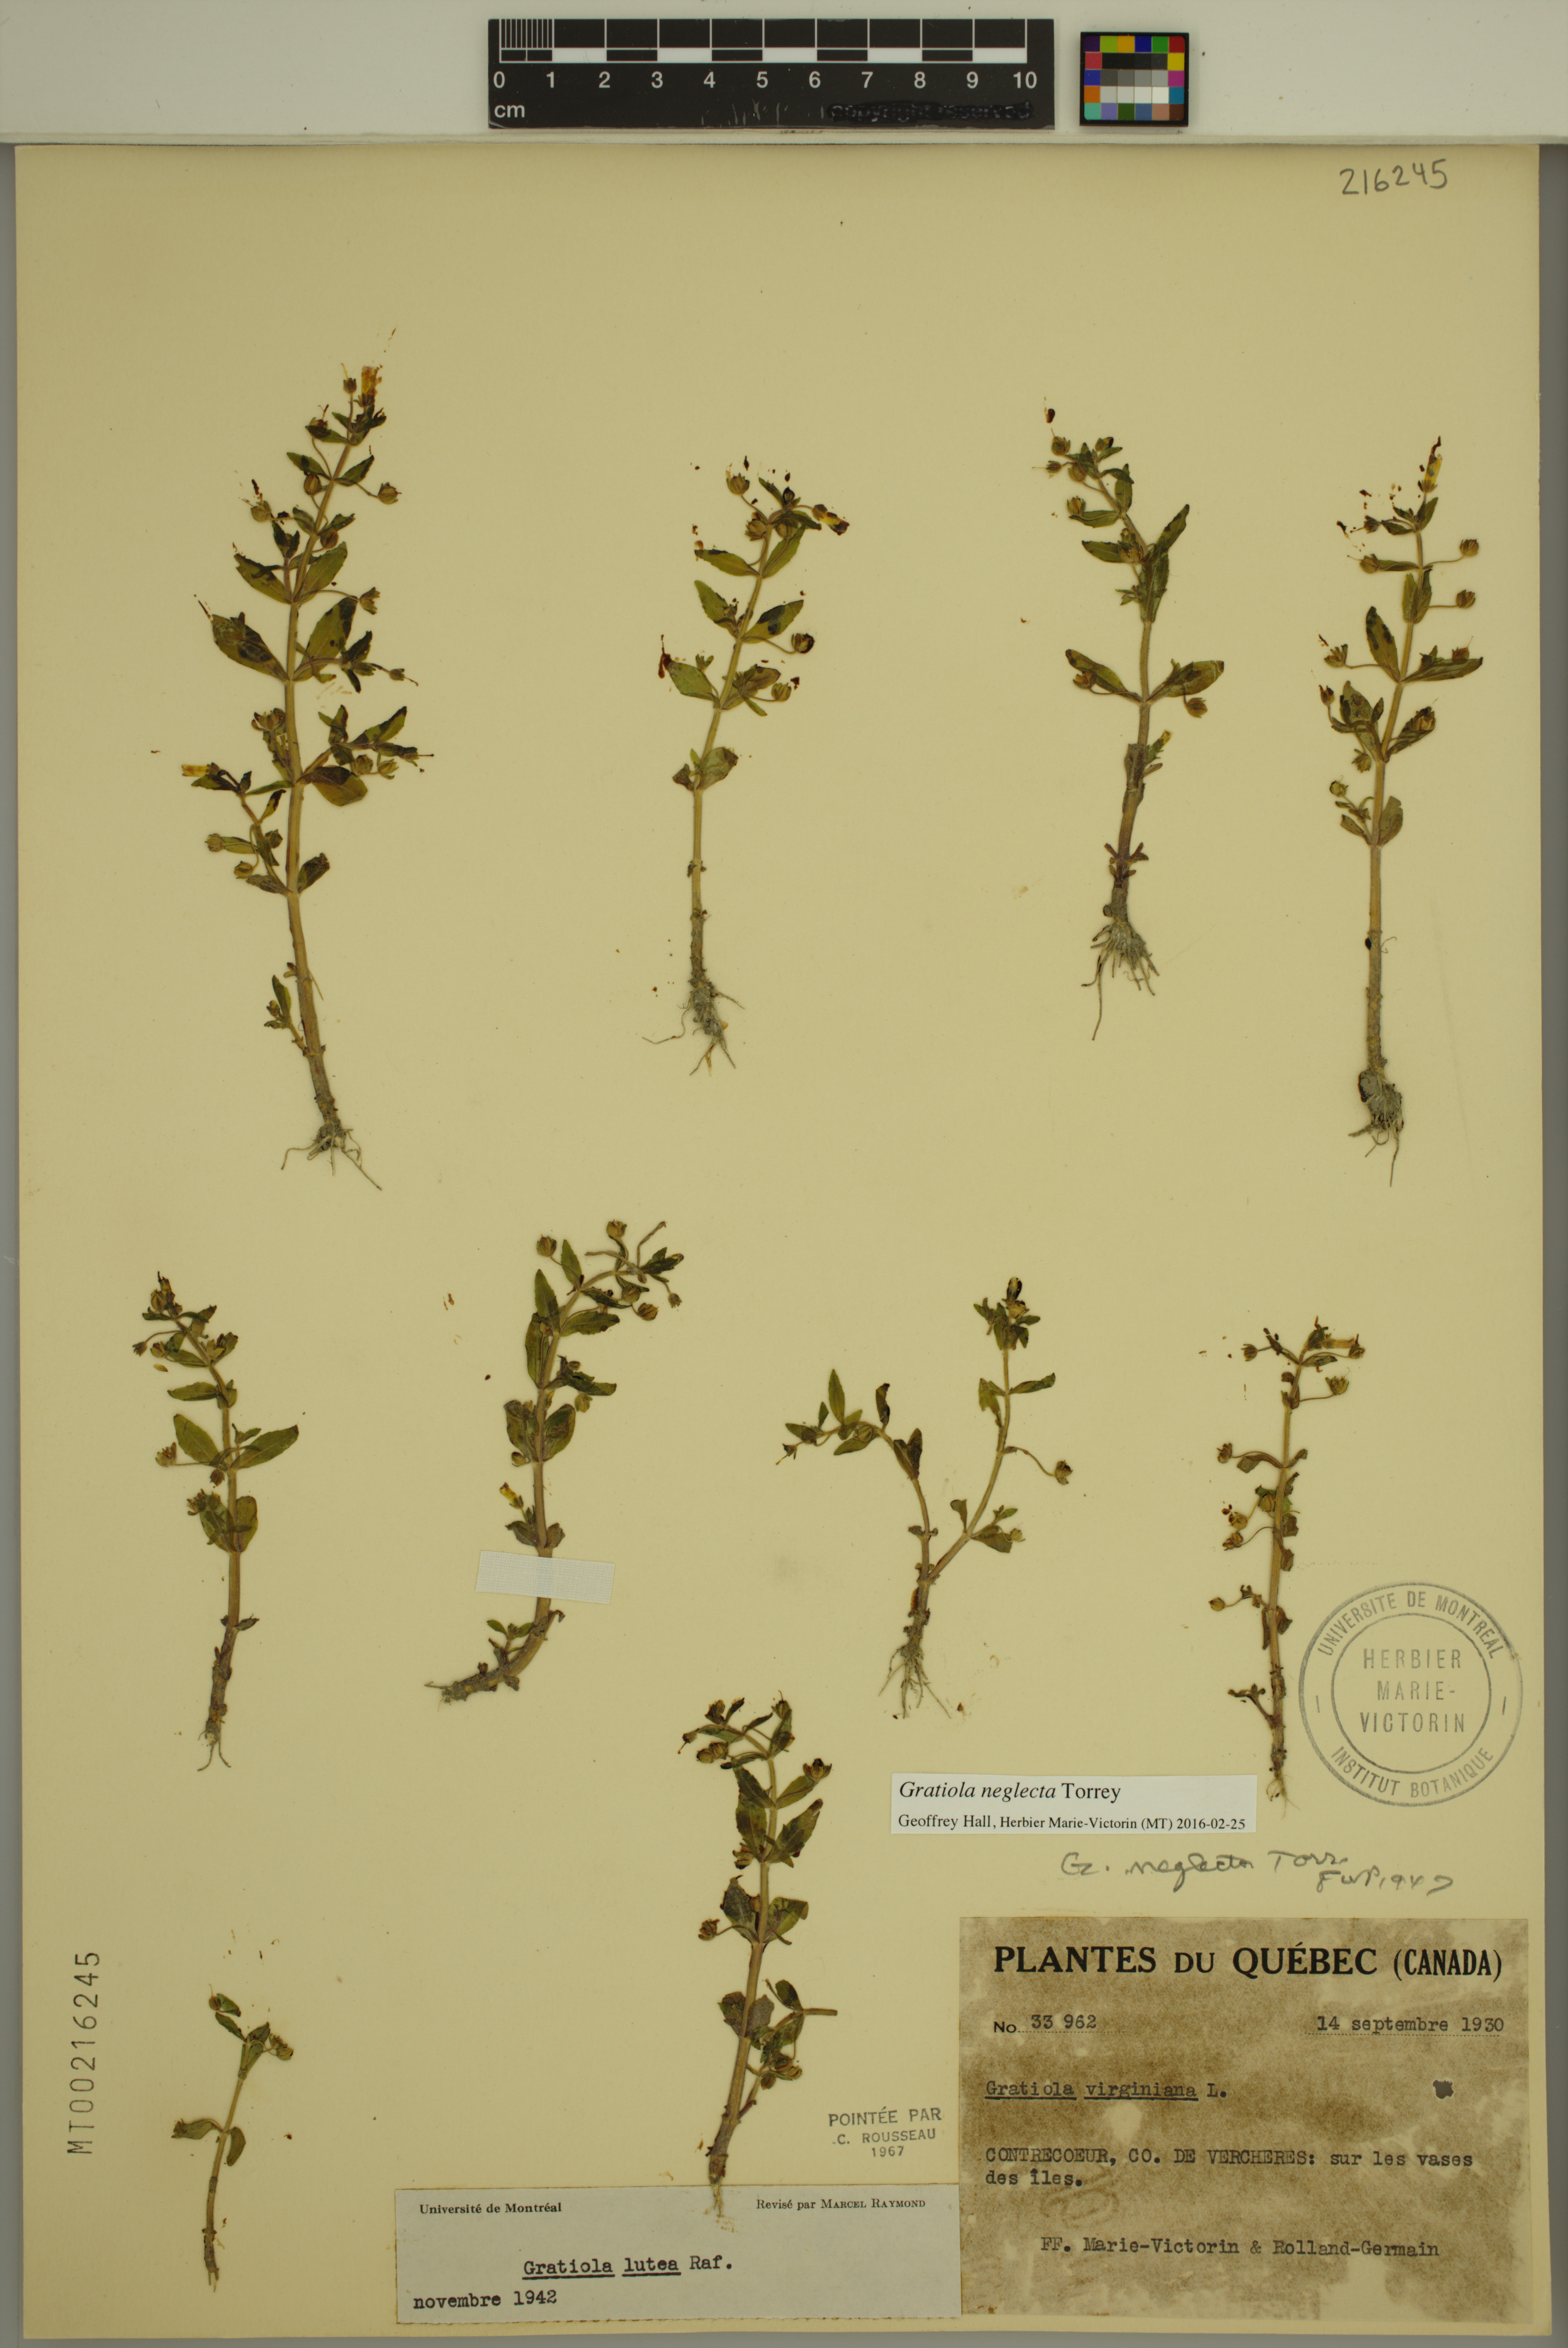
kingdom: Plantae
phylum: Tracheophyta
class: Magnoliopsida
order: Lamiales
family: Plantaginaceae
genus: Gratiola
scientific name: Gratiola neglecta
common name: American hedge-hyssop
